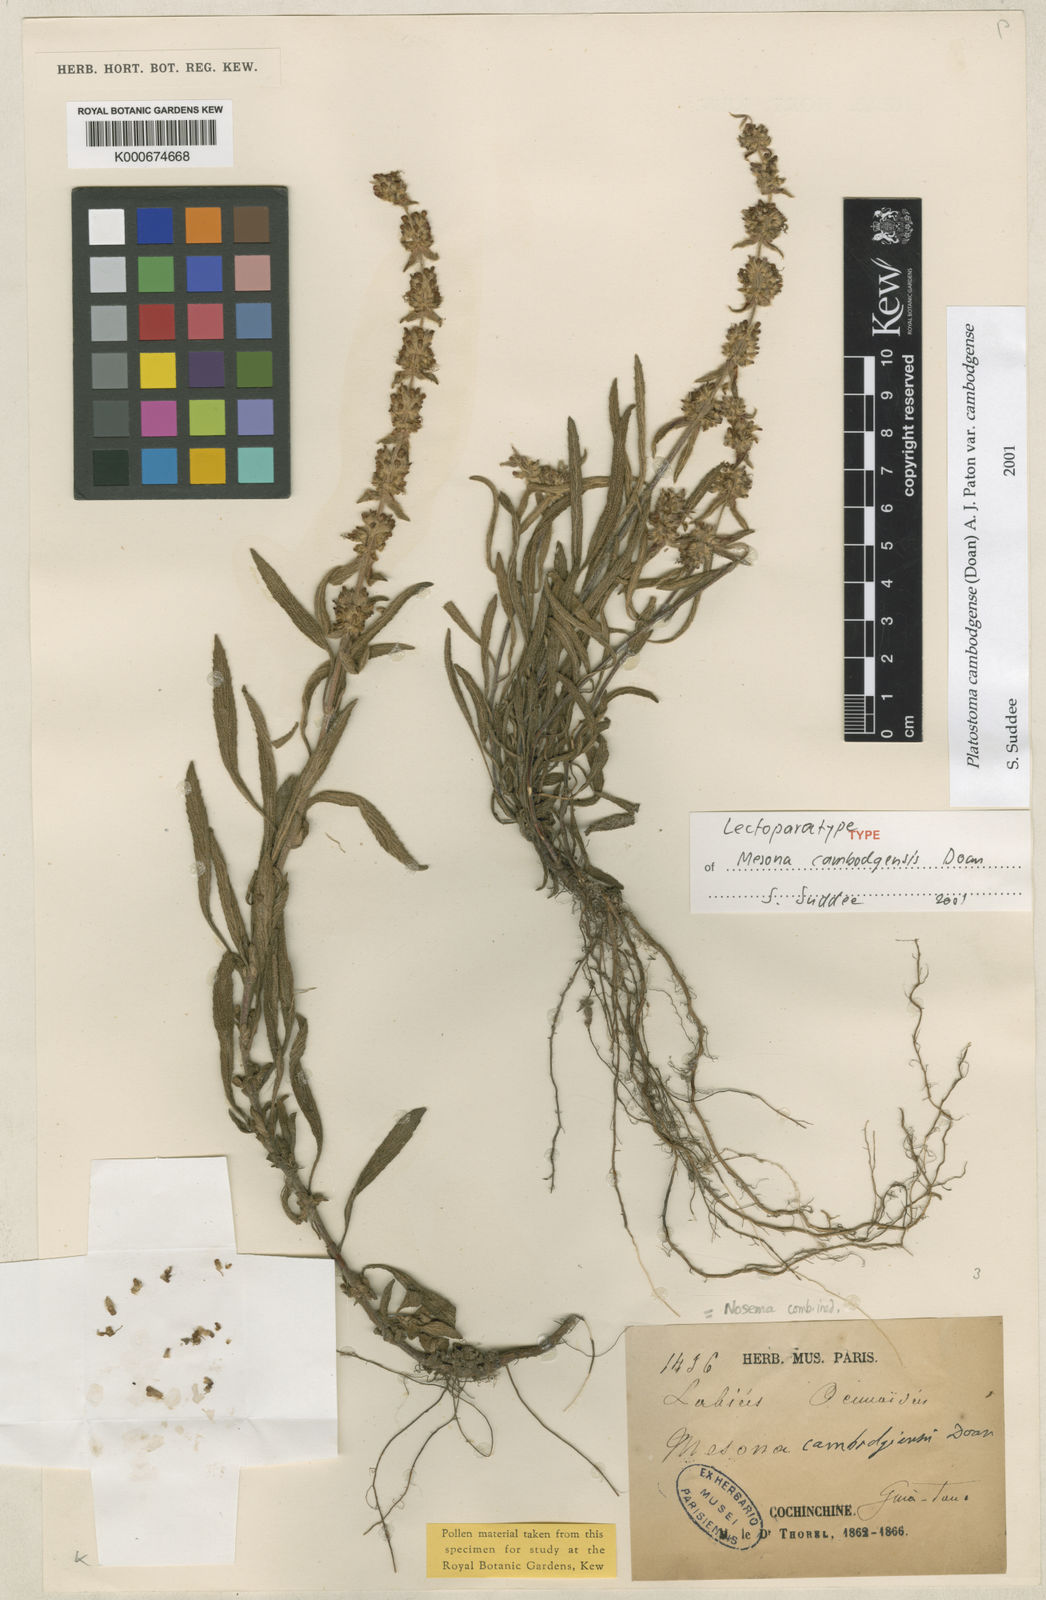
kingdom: Plantae
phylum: Tracheophyta
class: Magnoliopsida
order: Lamiales
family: Lamiaceae
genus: Platostoma
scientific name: Platostoma cambodgense
